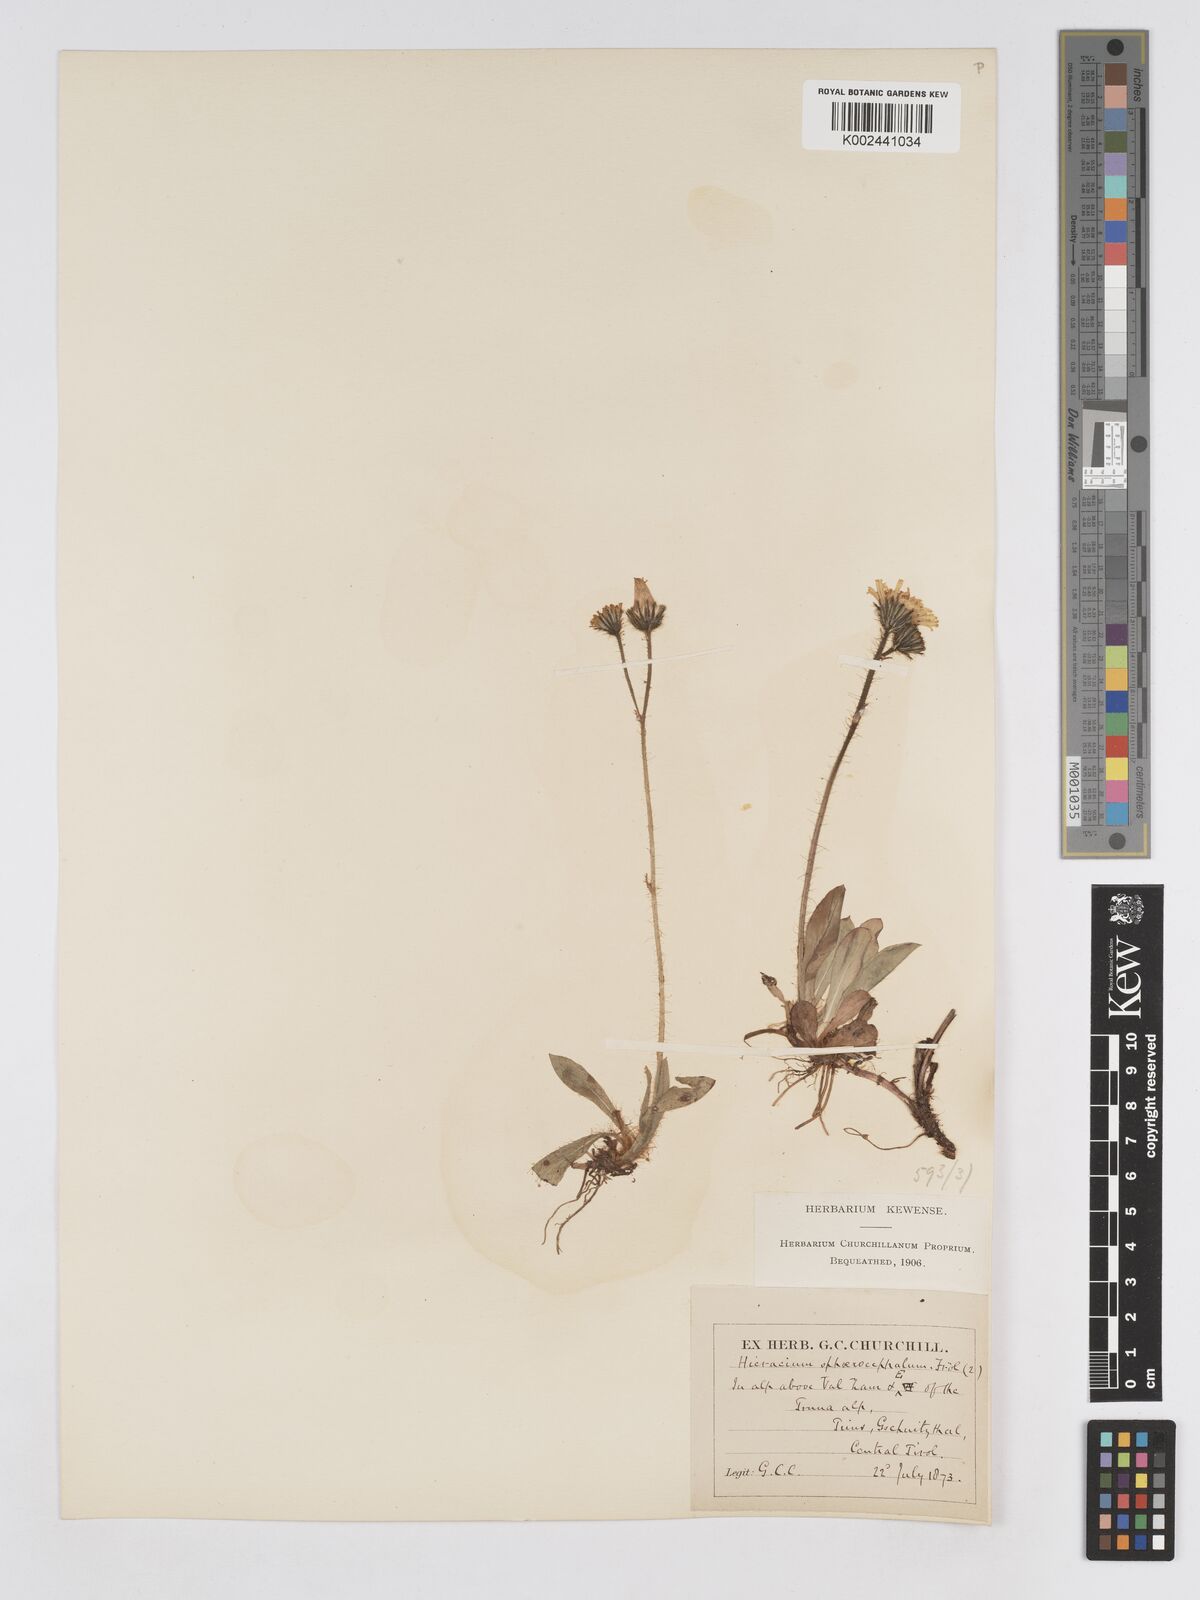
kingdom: Plantae
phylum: Tracheophyta
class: Magnoliopsida
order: Asterales
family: Asteraceae
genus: Pilosella
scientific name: Pilosella sphaerocephala
